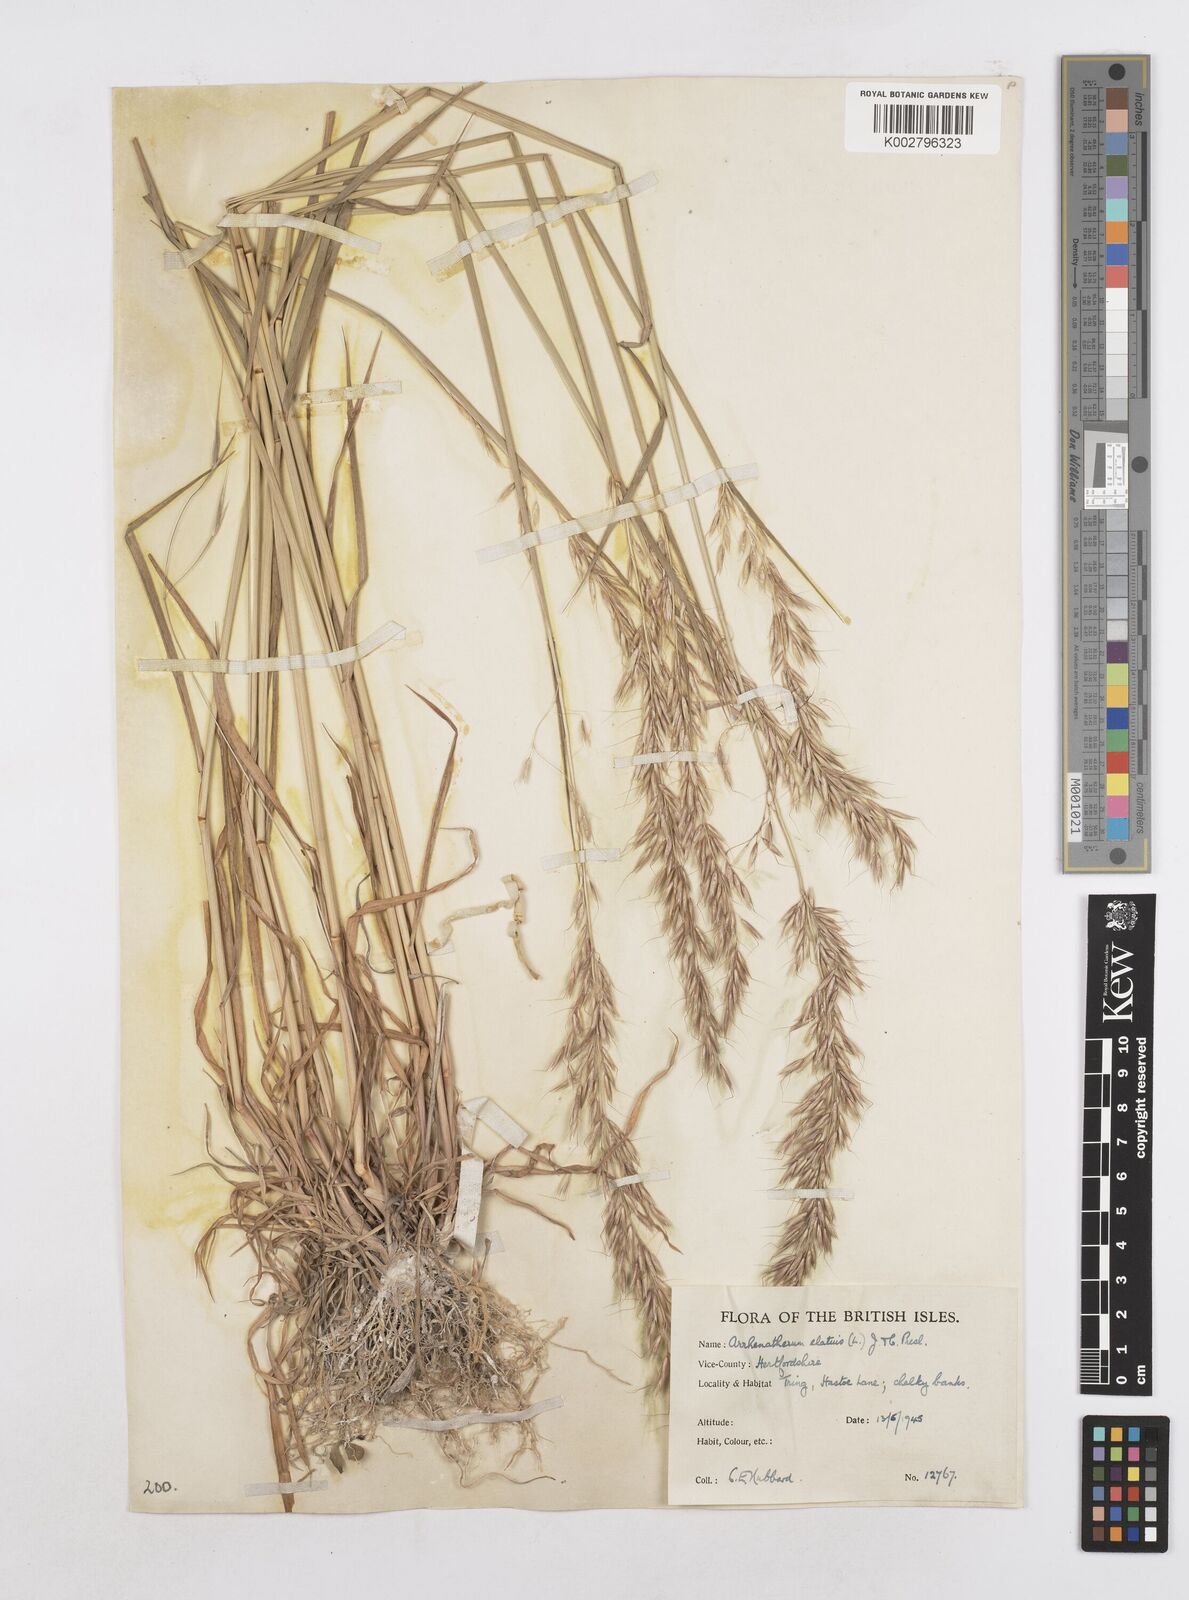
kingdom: Plantae
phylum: Tracheophyta
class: Liliopsida
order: Poales
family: Poaceae
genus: Arrhenatherum
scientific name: Arrhenatherum elatius
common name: Tall oatgrass
